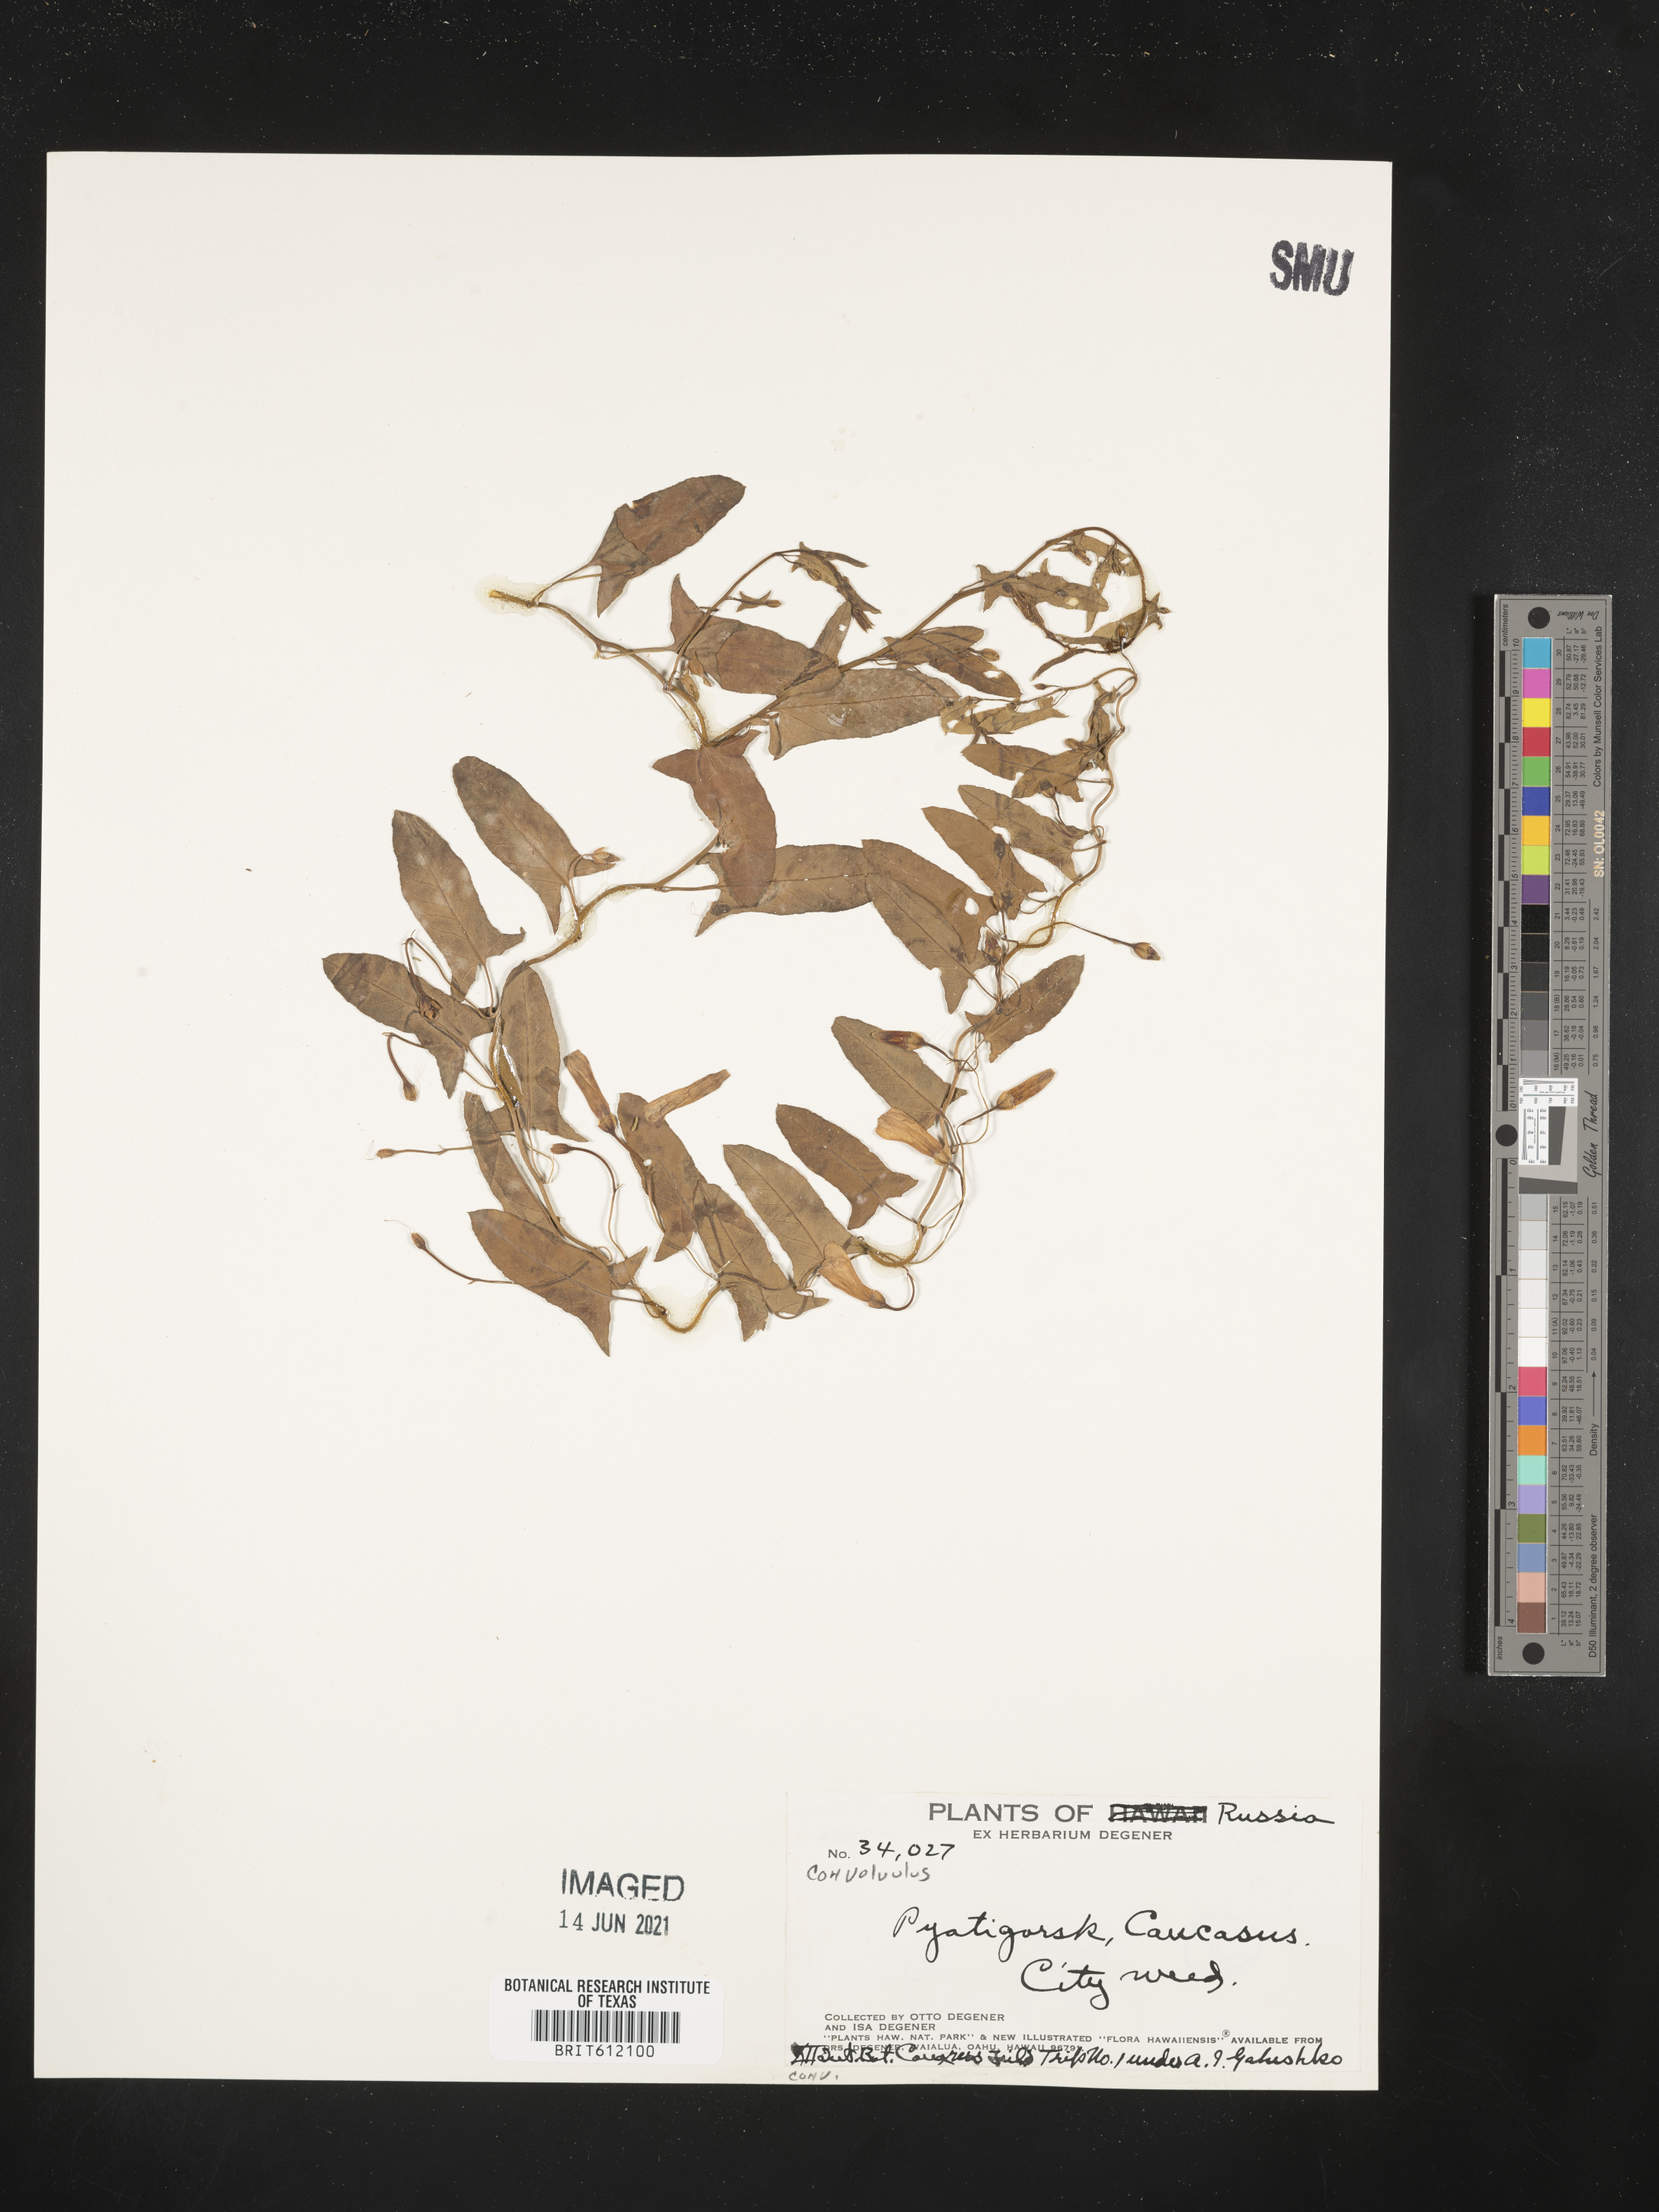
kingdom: Plantae
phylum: Tracheophyta
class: Magnoliopsida
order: Solanales
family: Convolvulaceae
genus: Convolvulus
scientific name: Convolvulus
